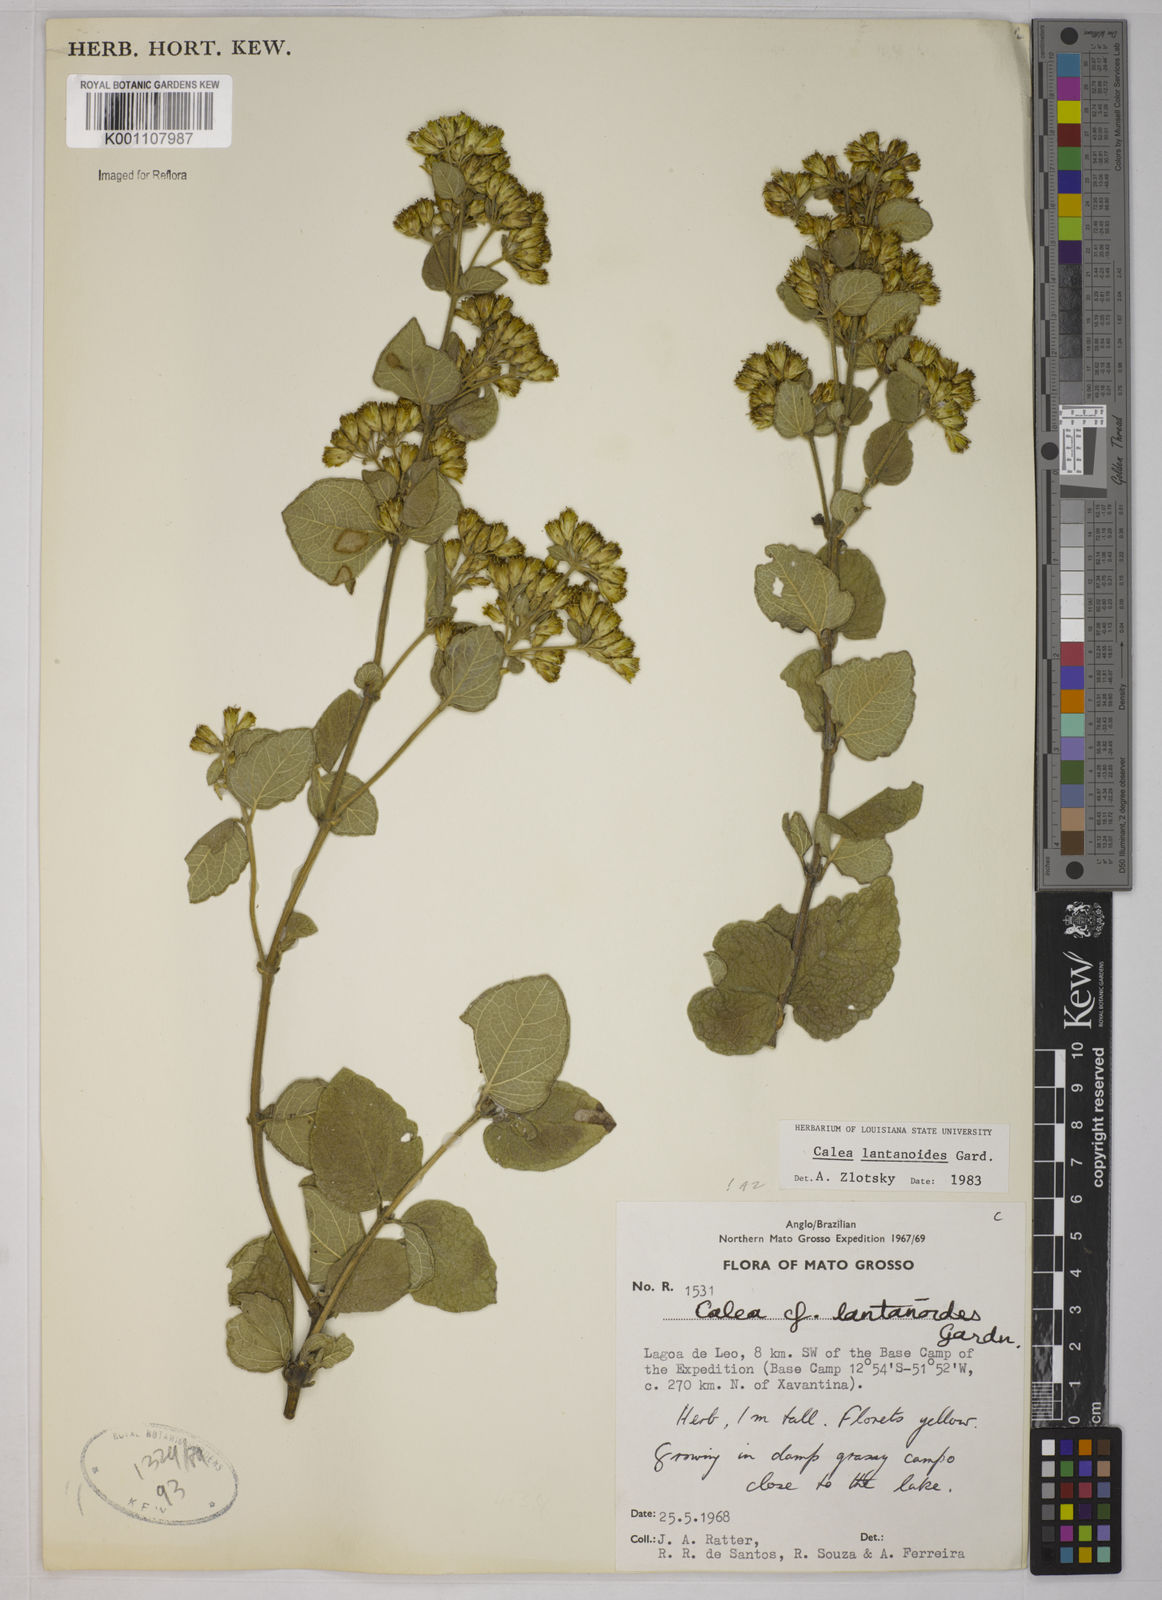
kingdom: Plantae
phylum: Tracheophyta
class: Magnoliopsida
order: Asterales
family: Asteraceae
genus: Calea
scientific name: Calea lantanoides
